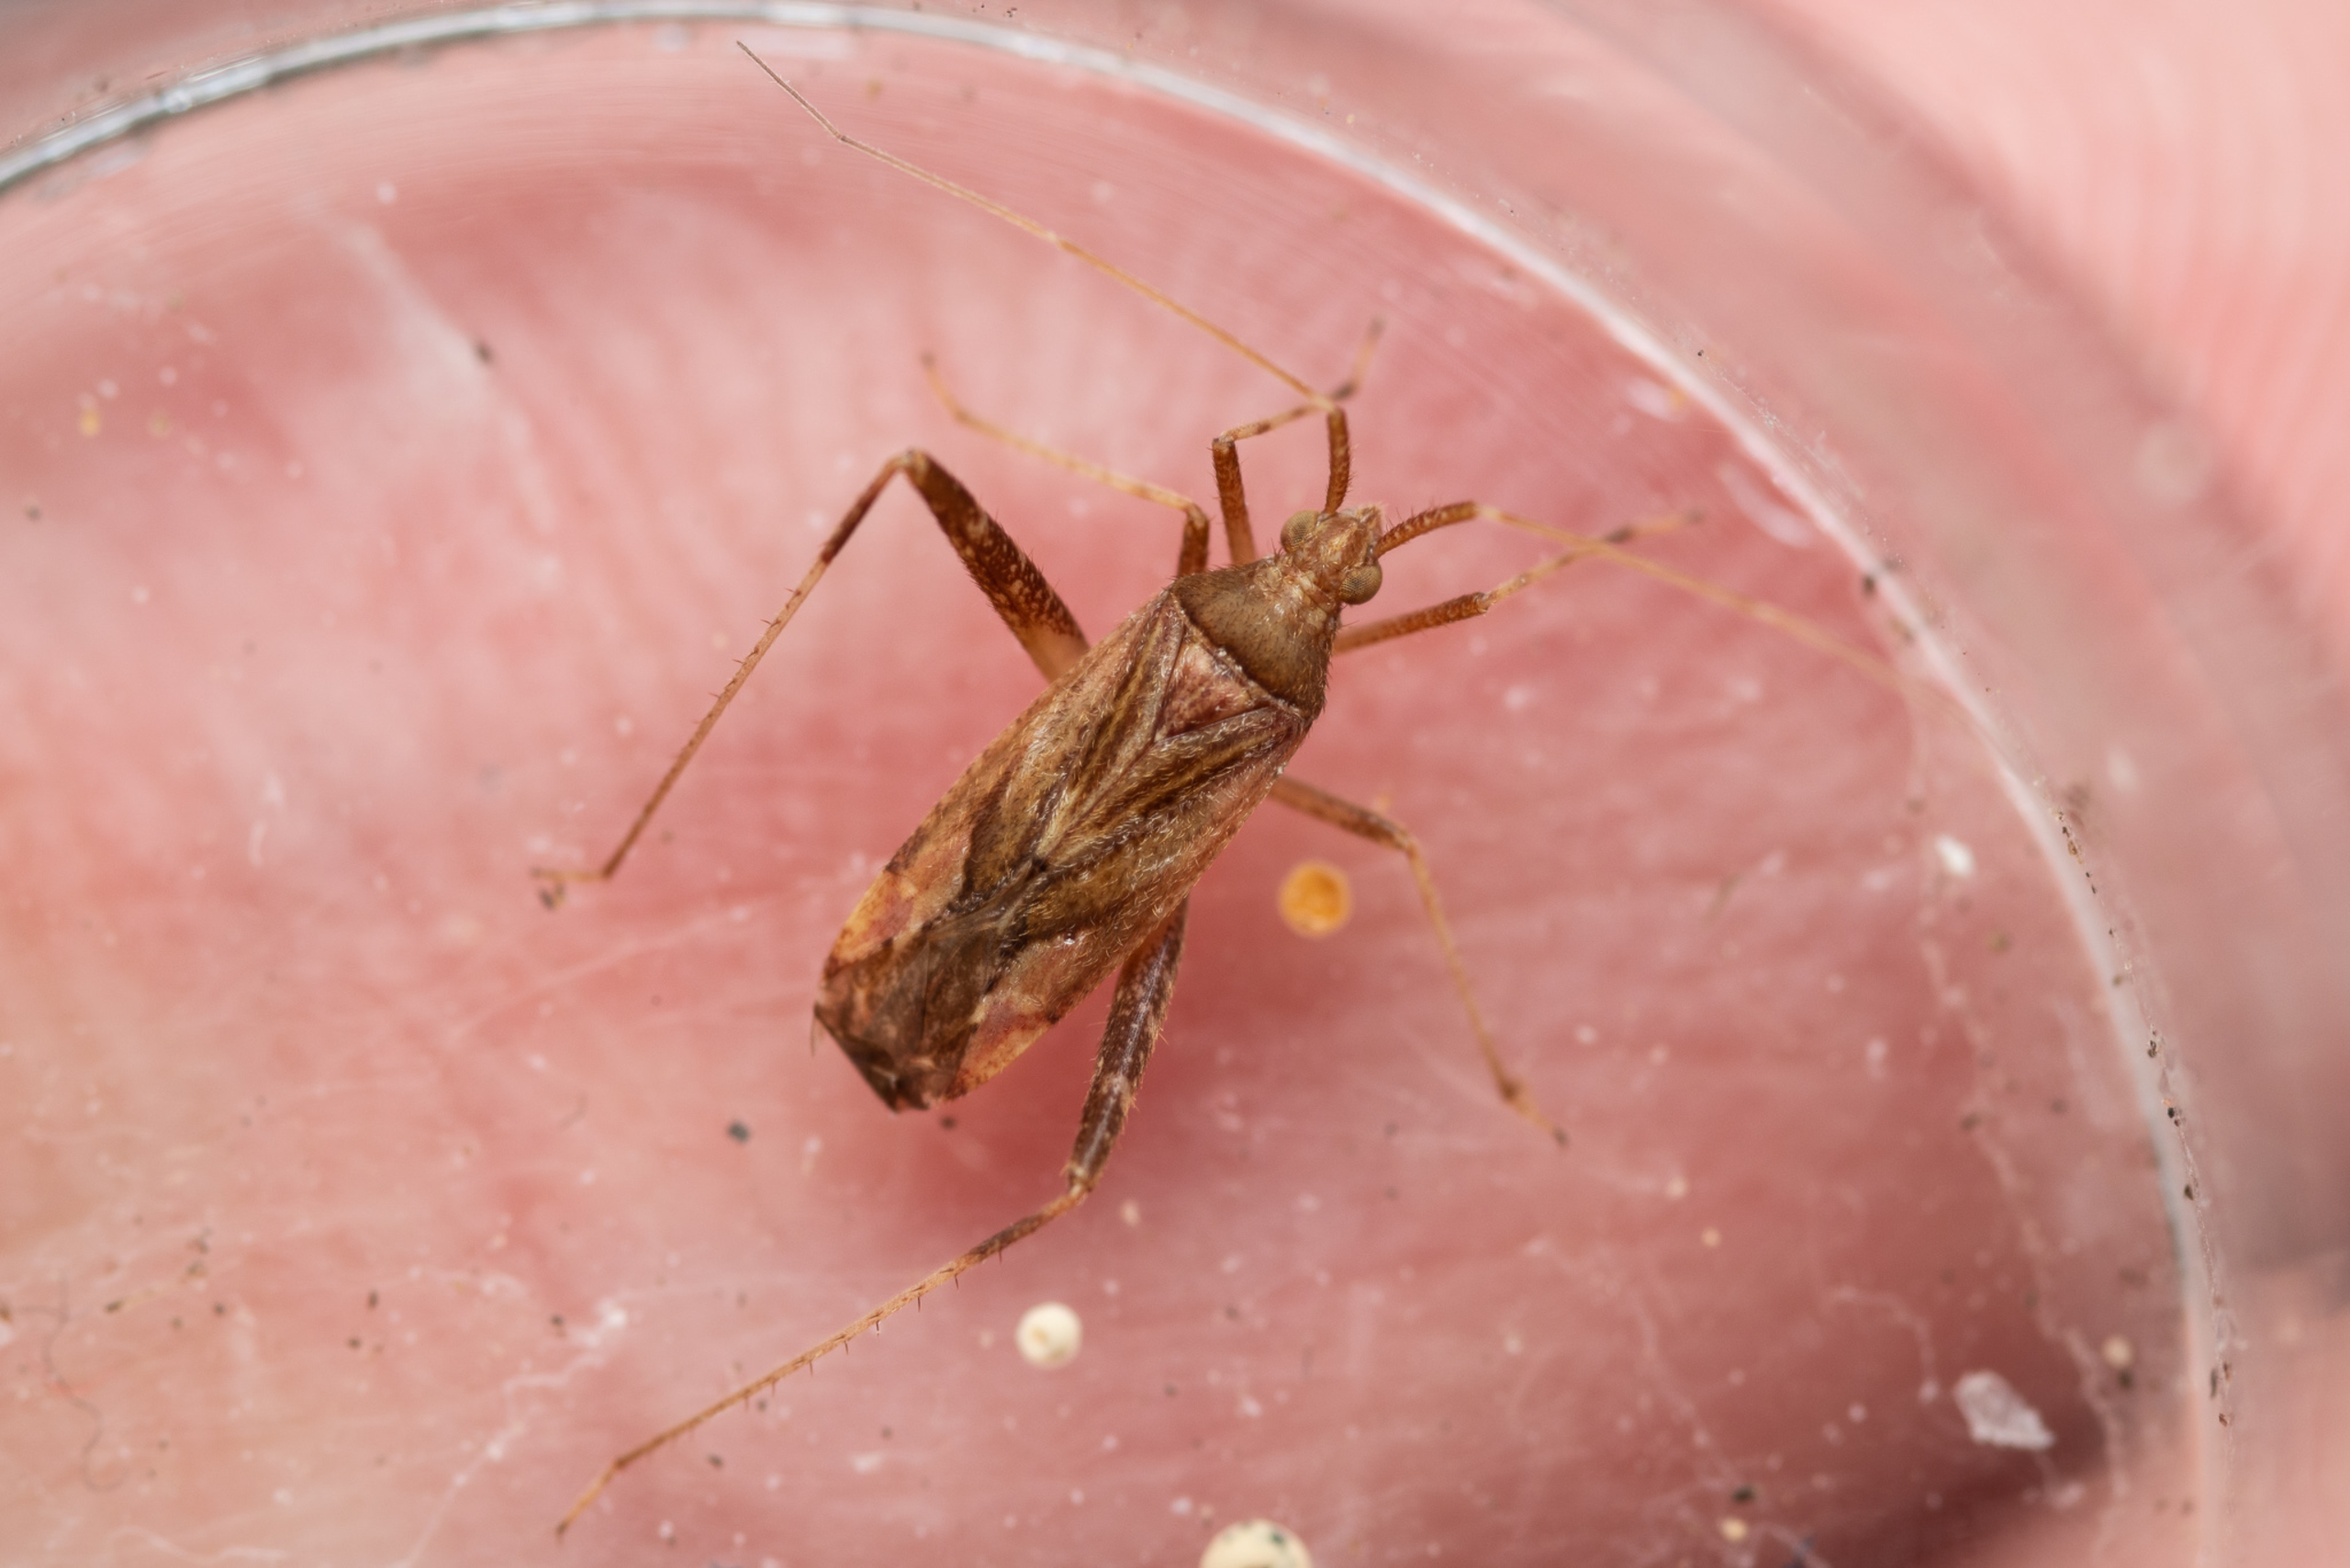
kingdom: Animalia
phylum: Arthropoda
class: Insecta
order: Hemiptera
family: Miridae
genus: Phytocoris
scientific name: Phytocoris varipes
